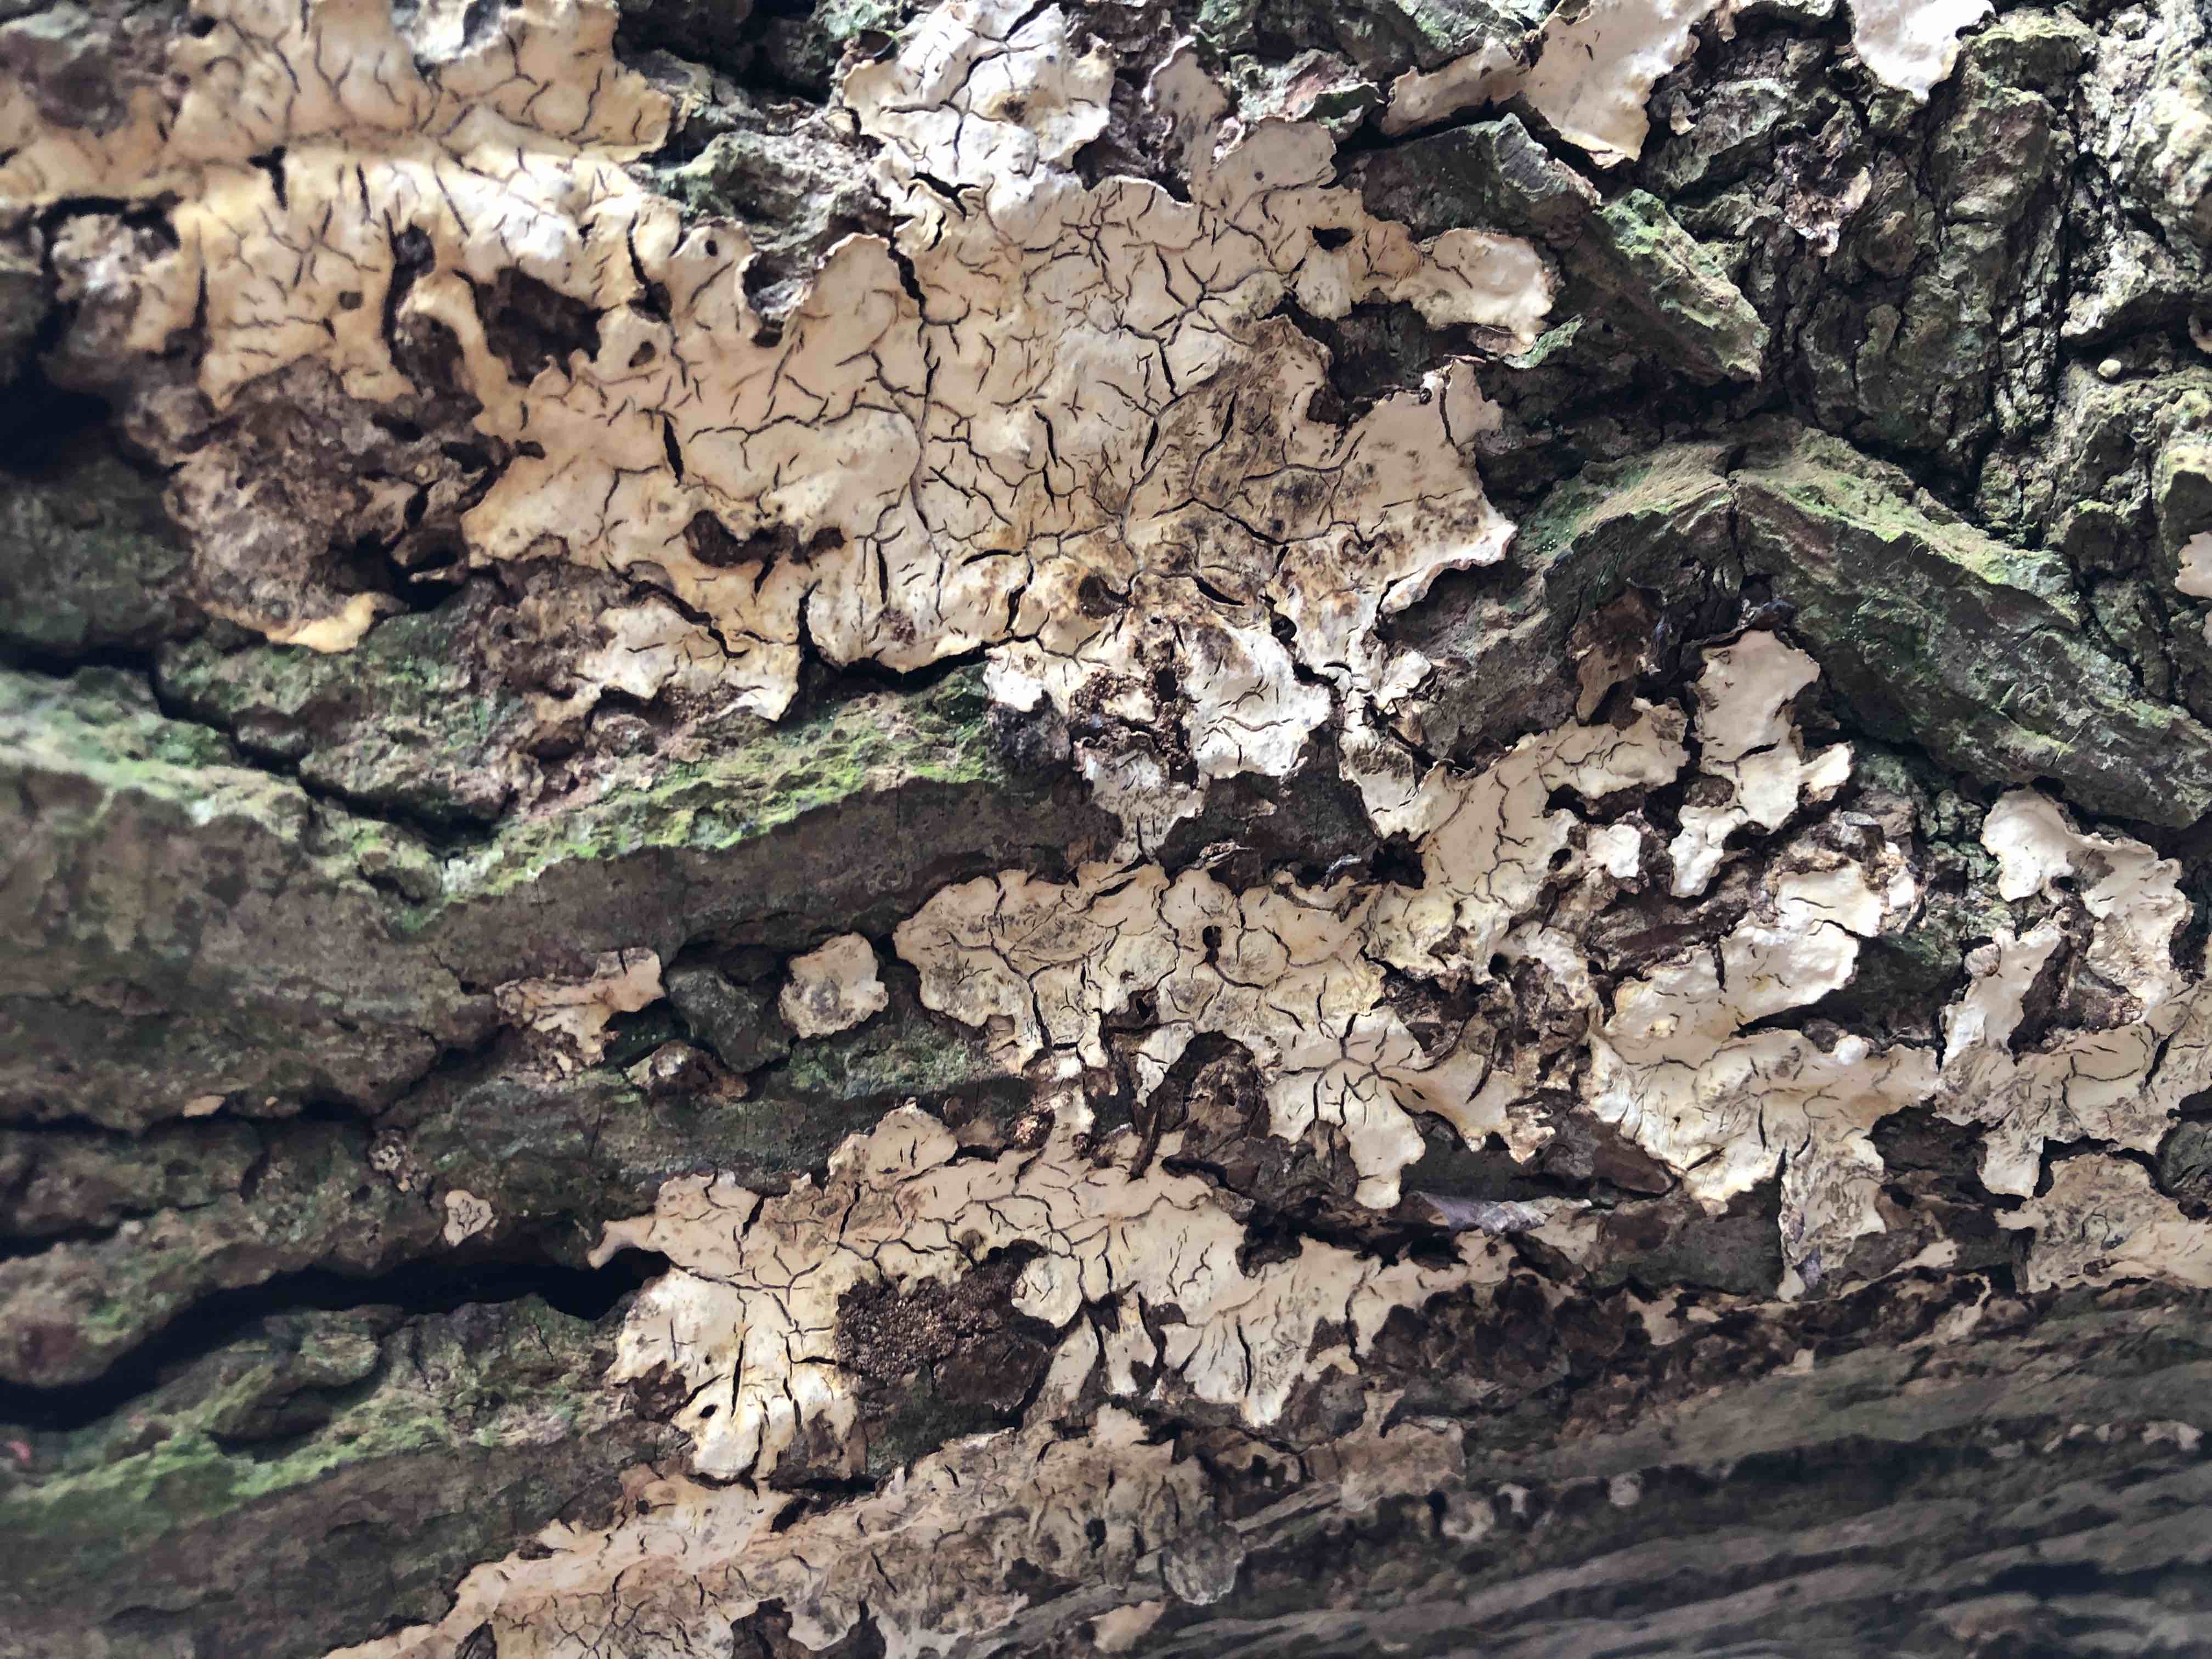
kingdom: Fungi
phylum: Basidiomycota
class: Agaricomycetes
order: Russulales
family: Stereaceae
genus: Stereum
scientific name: Stereum rugosum
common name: rynket lædersvamp
